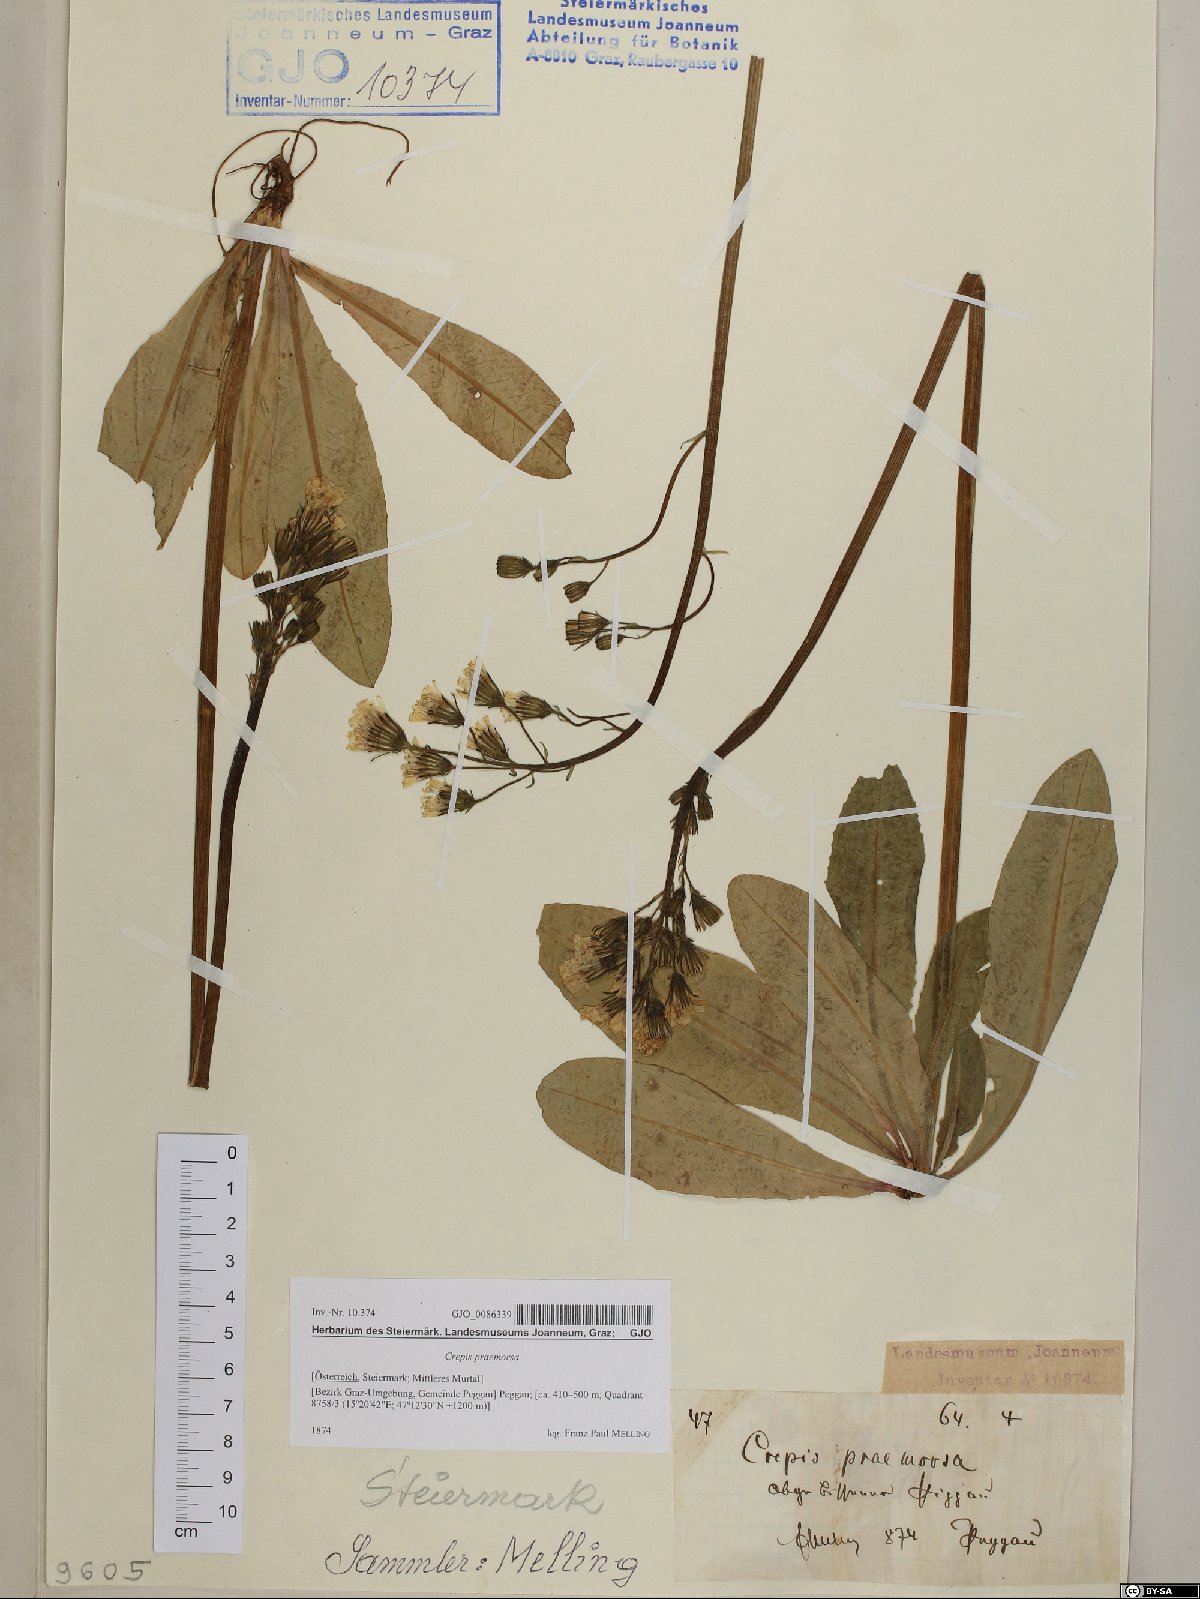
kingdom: Plantae
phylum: Tracheophyta
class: Magnoliopsida
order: Asterales
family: Asteraceae
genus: Crepis
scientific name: Crepis praemorsa
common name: Leafless hawk's-beard
